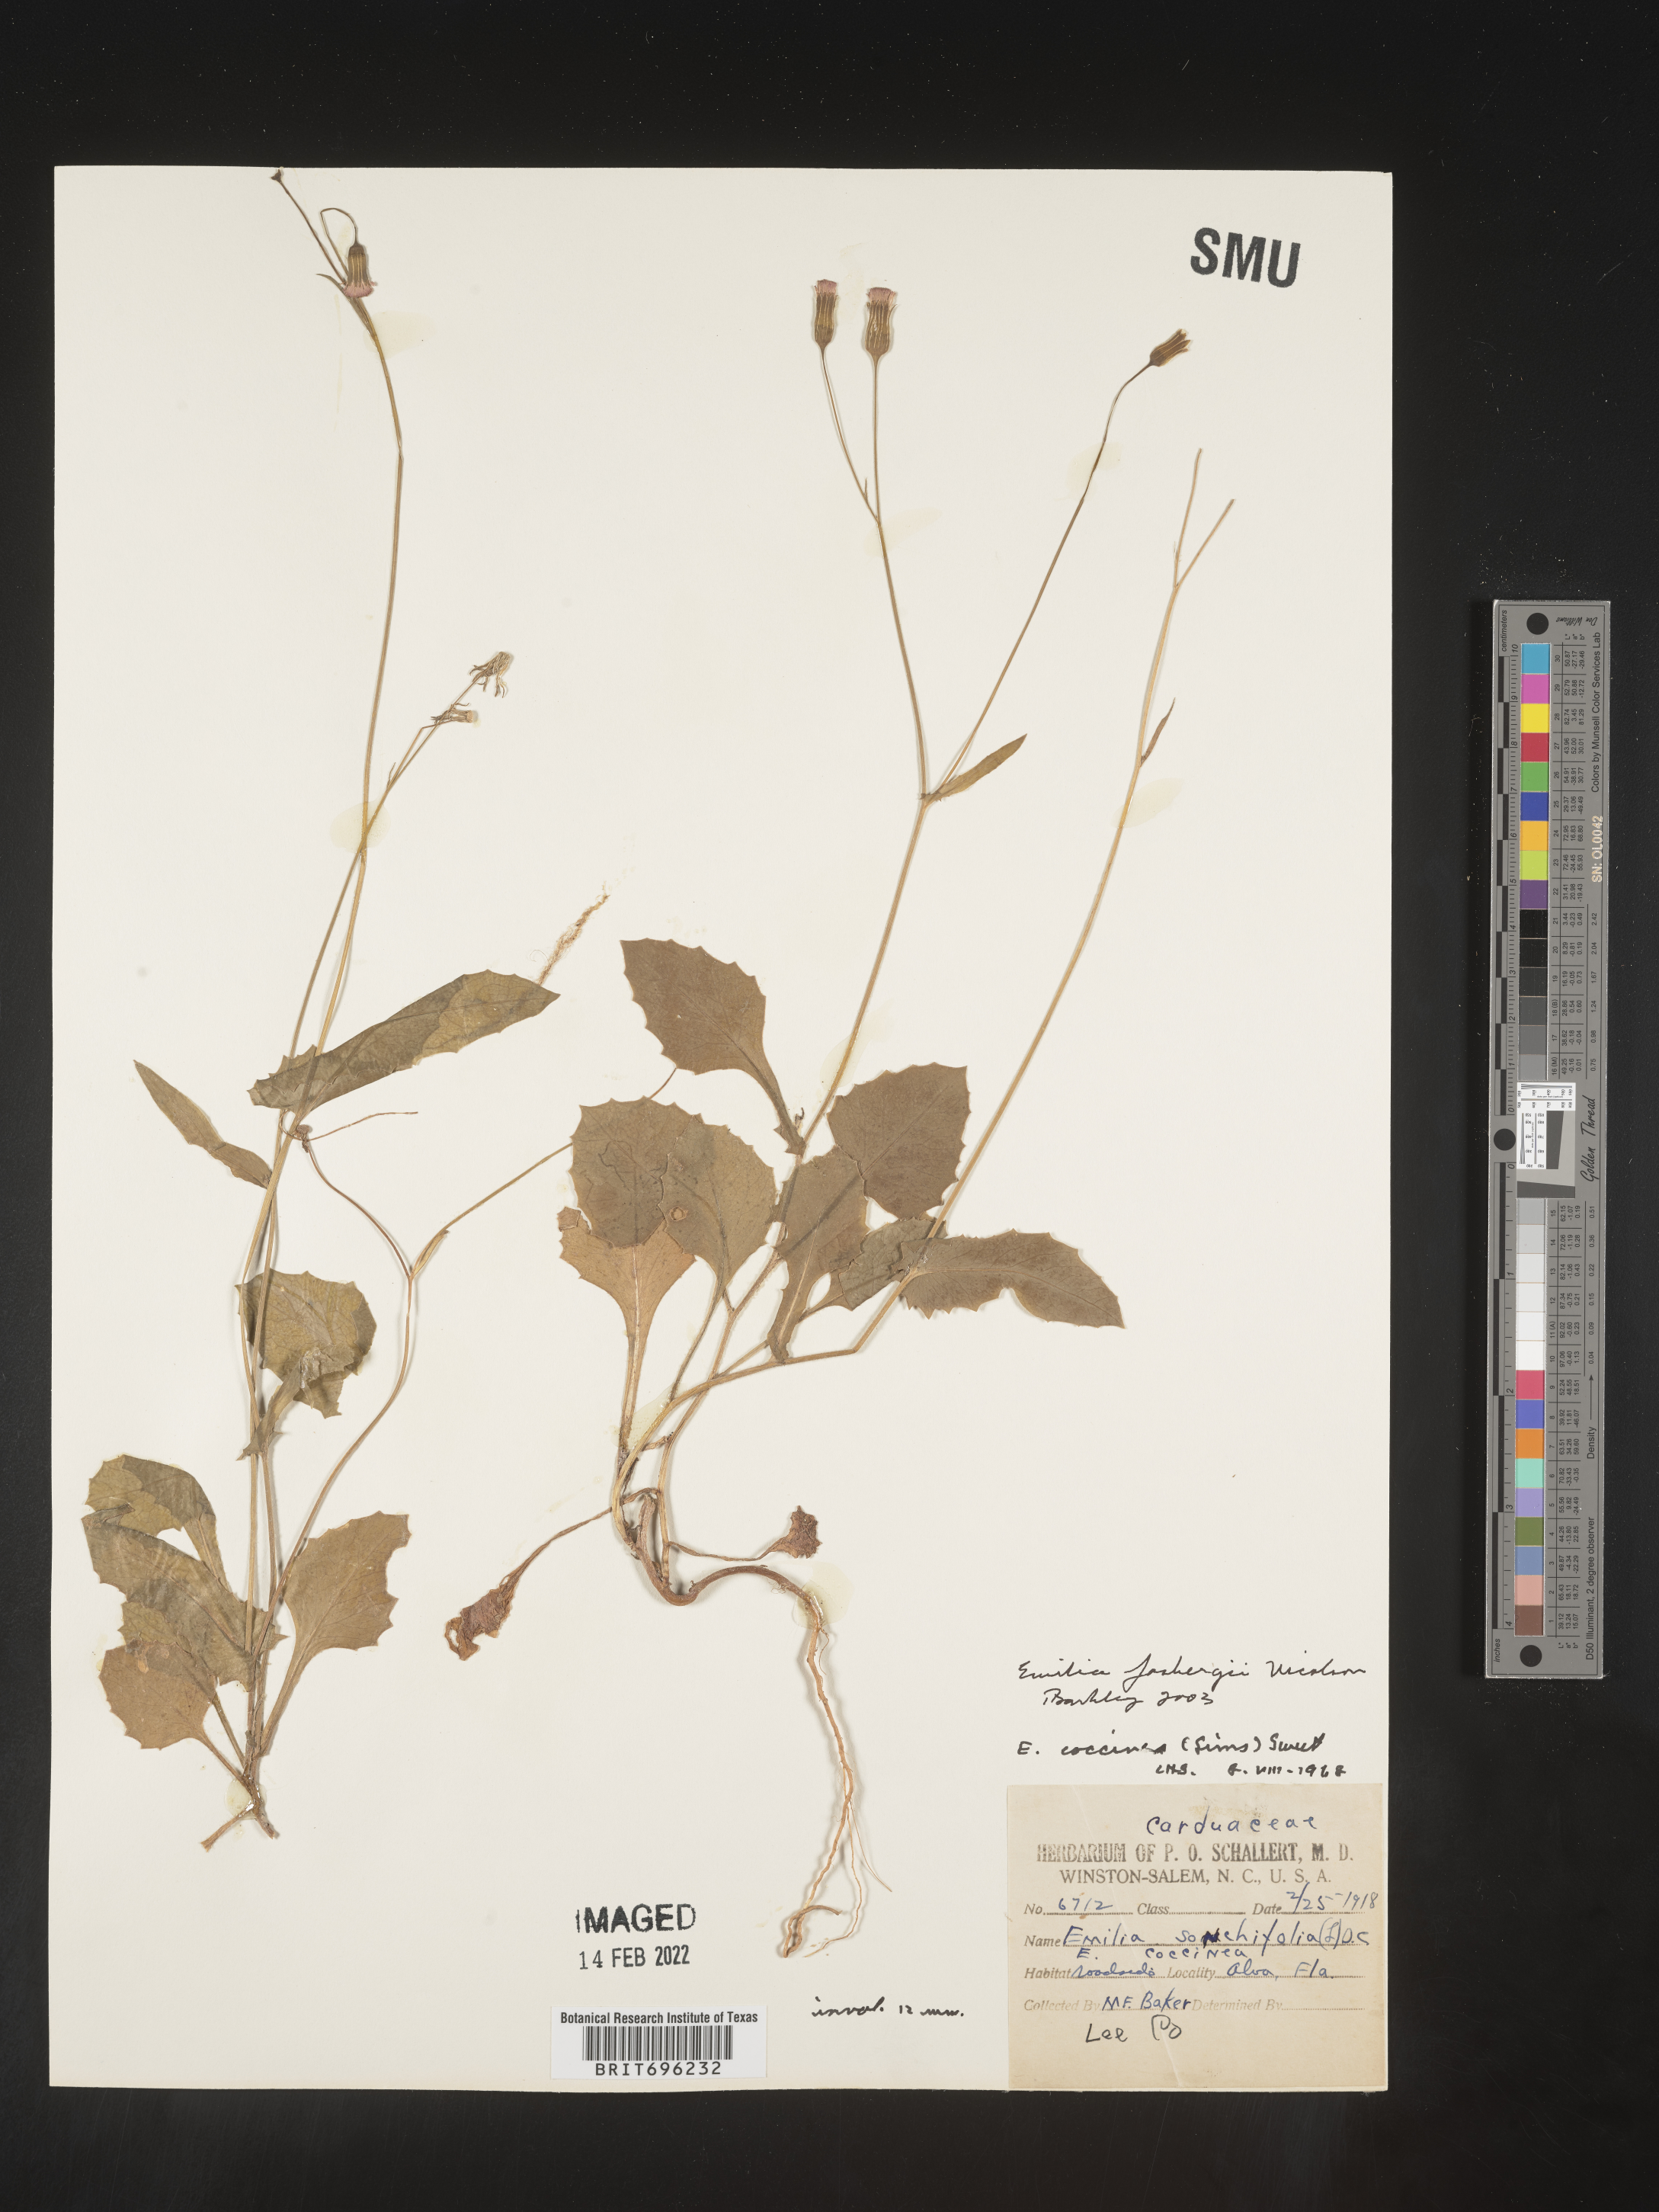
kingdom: Plantae
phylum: Tracheophyta
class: Magnoliopsida
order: Asterales
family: Asteraceae
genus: Emilia
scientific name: Emilia fosbergii
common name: Florida tasselflower
